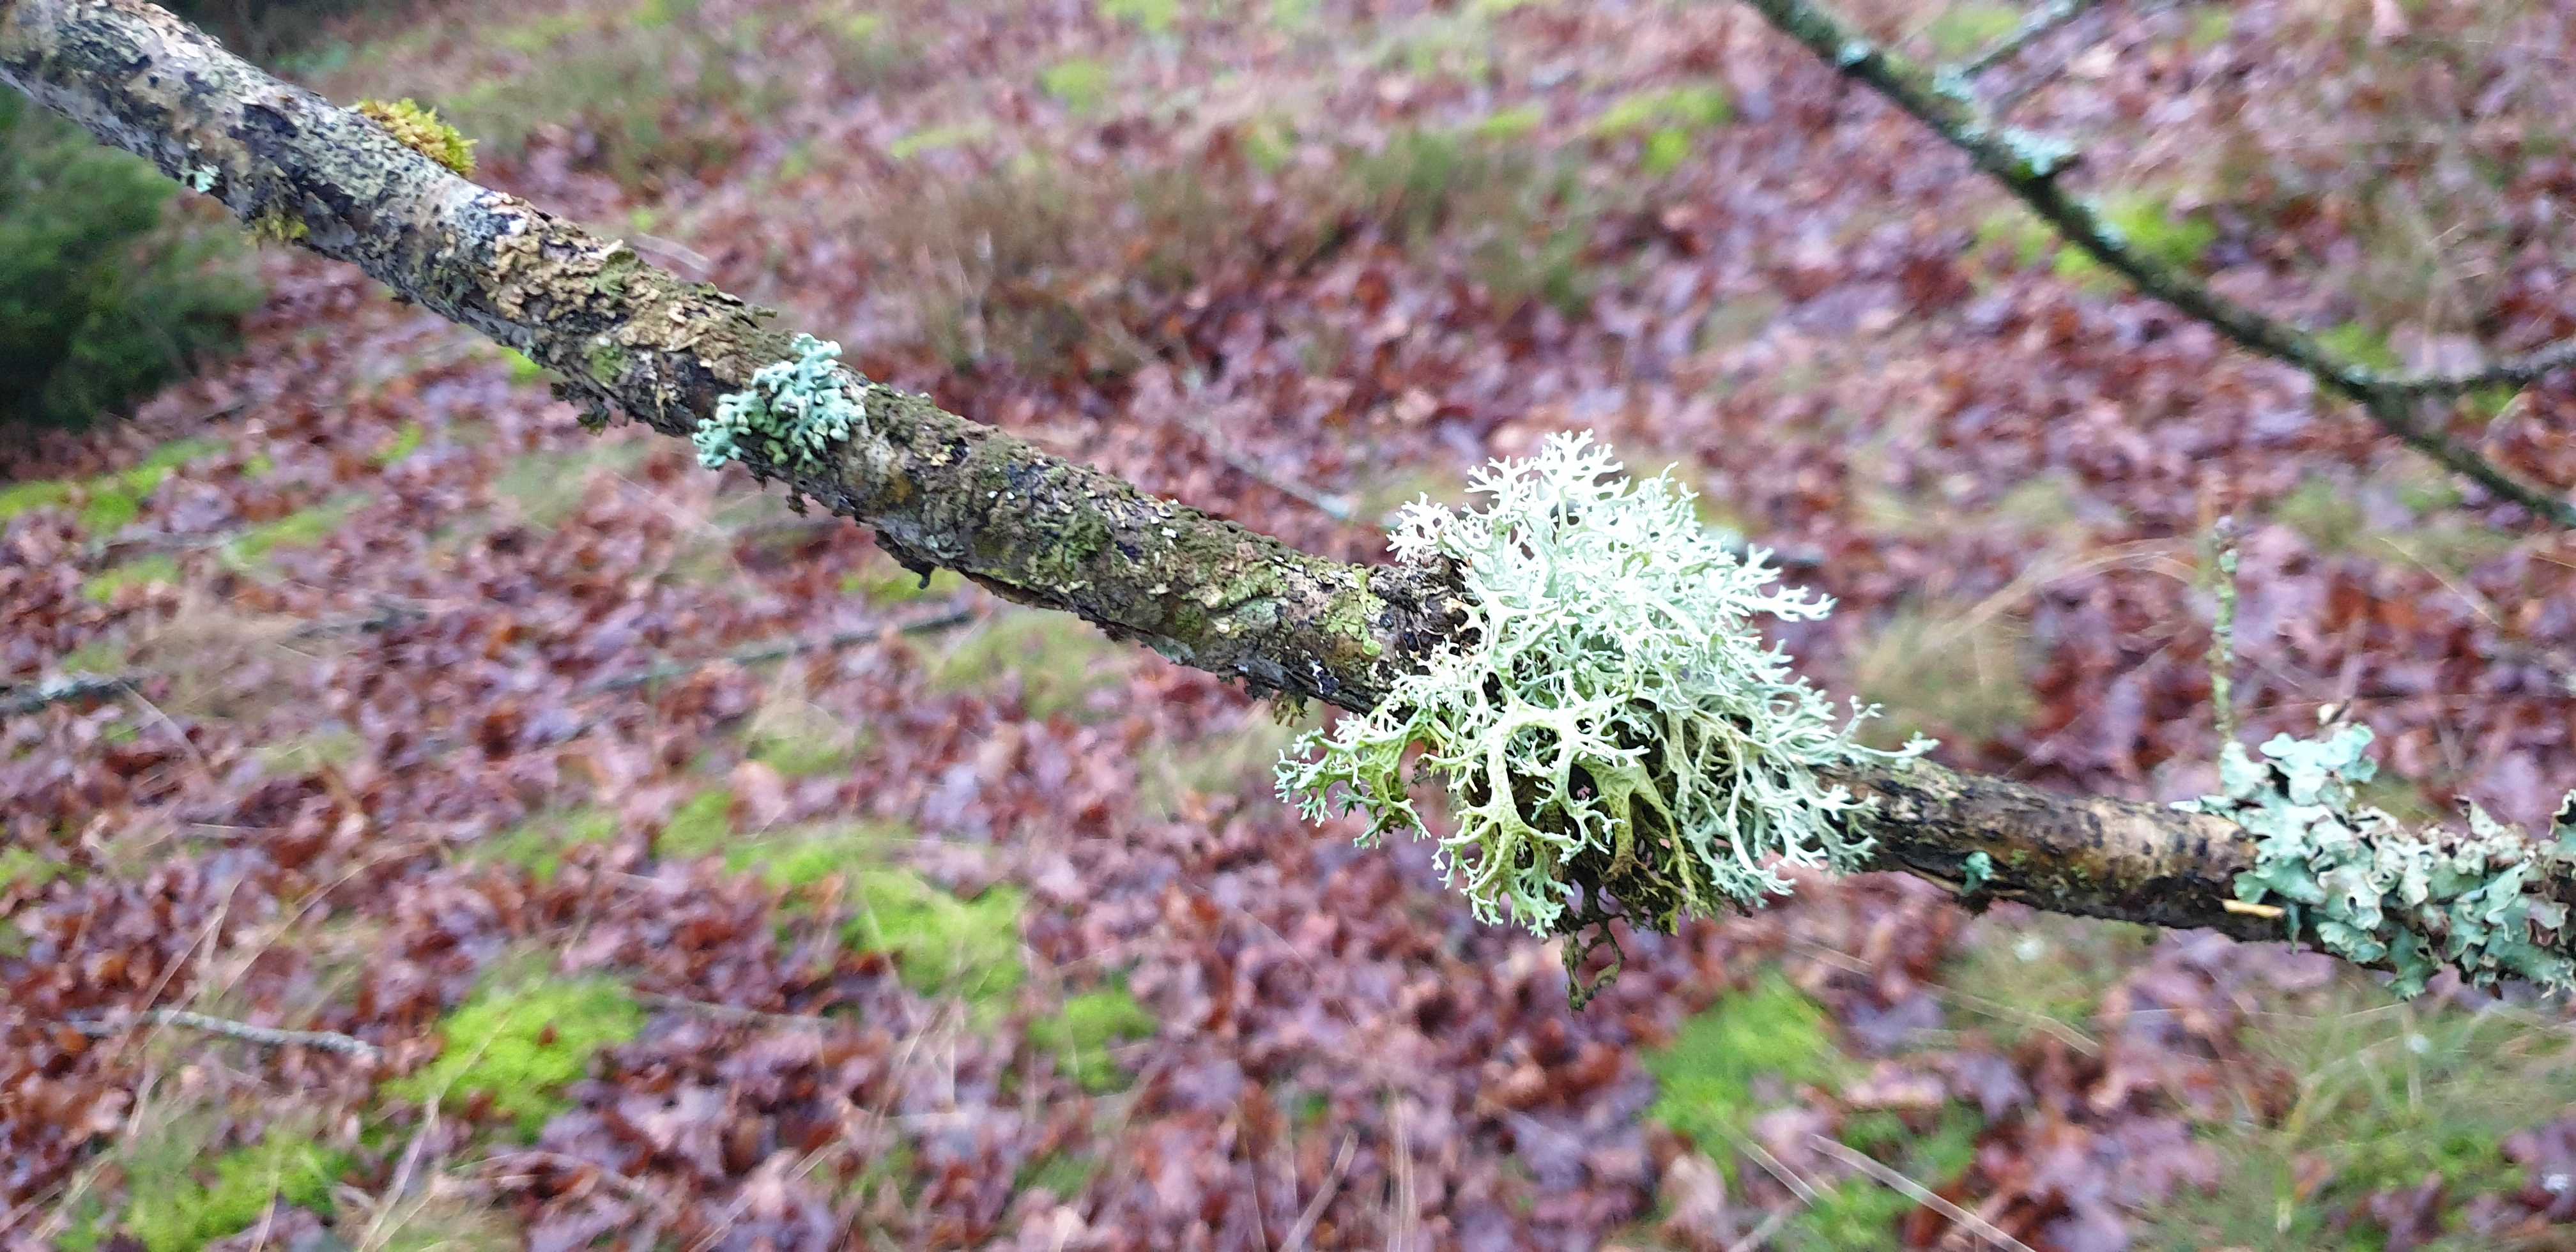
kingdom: Fungi
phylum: Ascomycota
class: Lecanoromycetes
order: Lecanorales
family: Parmeliaceae
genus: Evernia
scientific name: Evernia prunastri
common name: almindelig slåenlav
